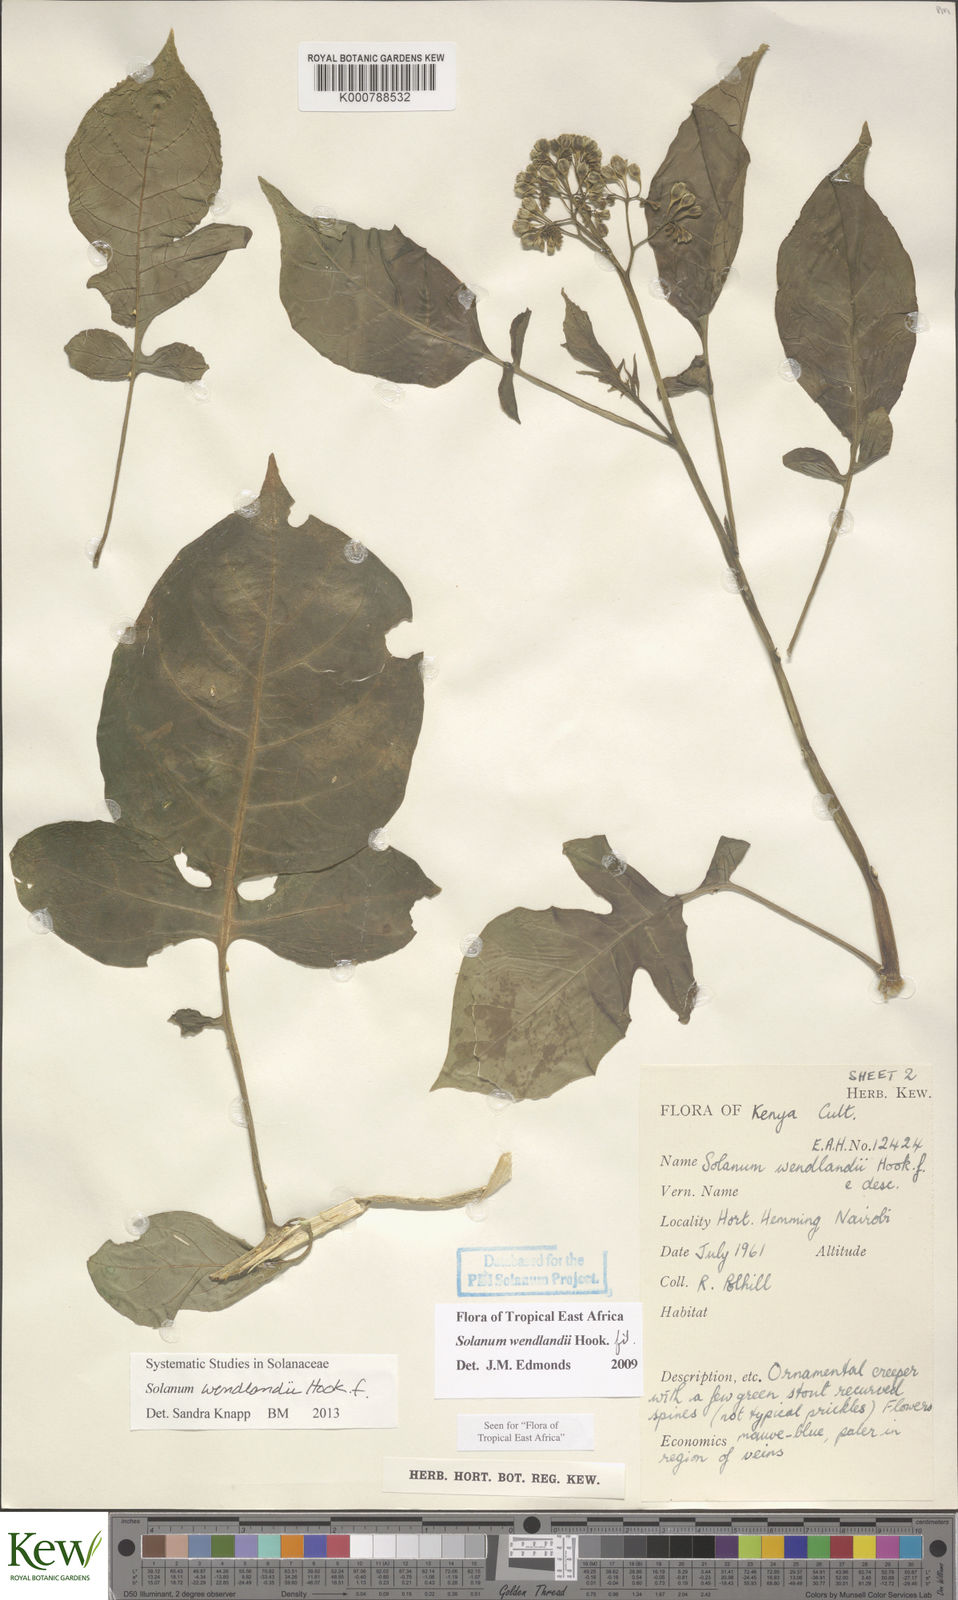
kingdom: Plantae
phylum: Tracheophyta
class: Magnoliopsida
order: Solanales
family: Solanaceae
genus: Solanum
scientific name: Solanum wendlandii
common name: Costa rican nightshade
